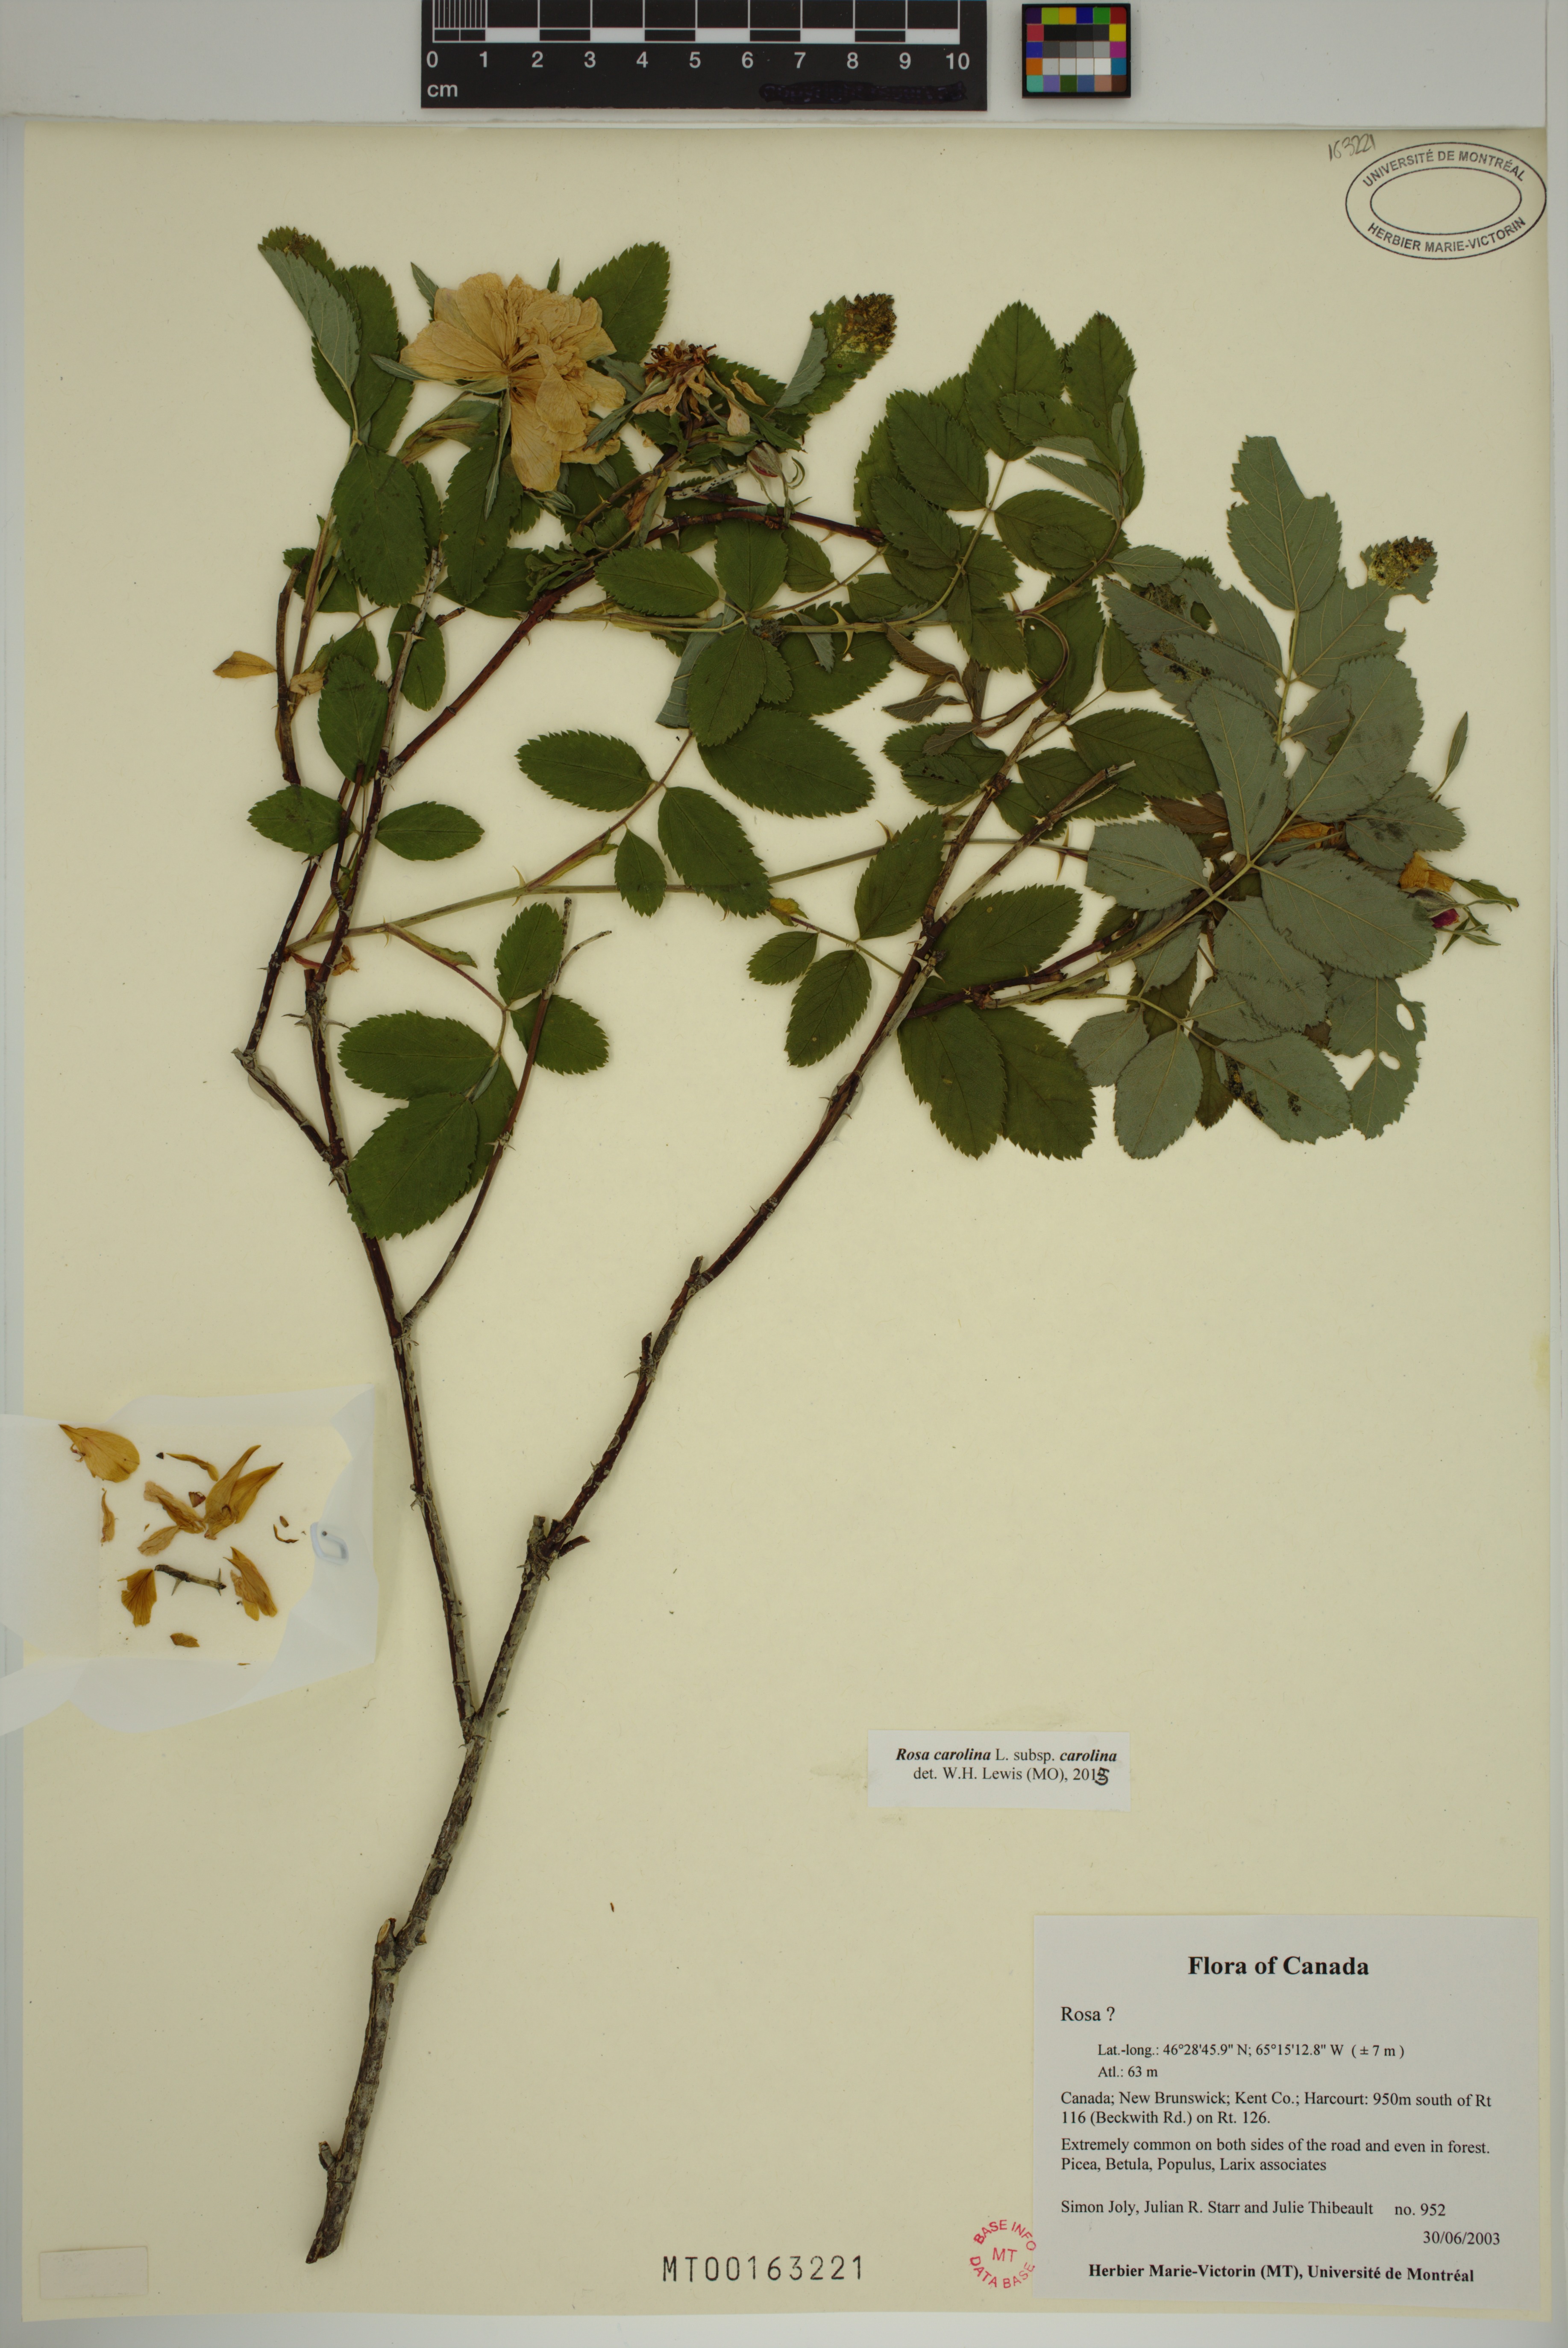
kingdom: Plantae
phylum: Tracheophyta
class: Magnoliopsida
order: Rosales
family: Rosaceae
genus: Rosa
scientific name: Rosa carolina
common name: Pasture rose
